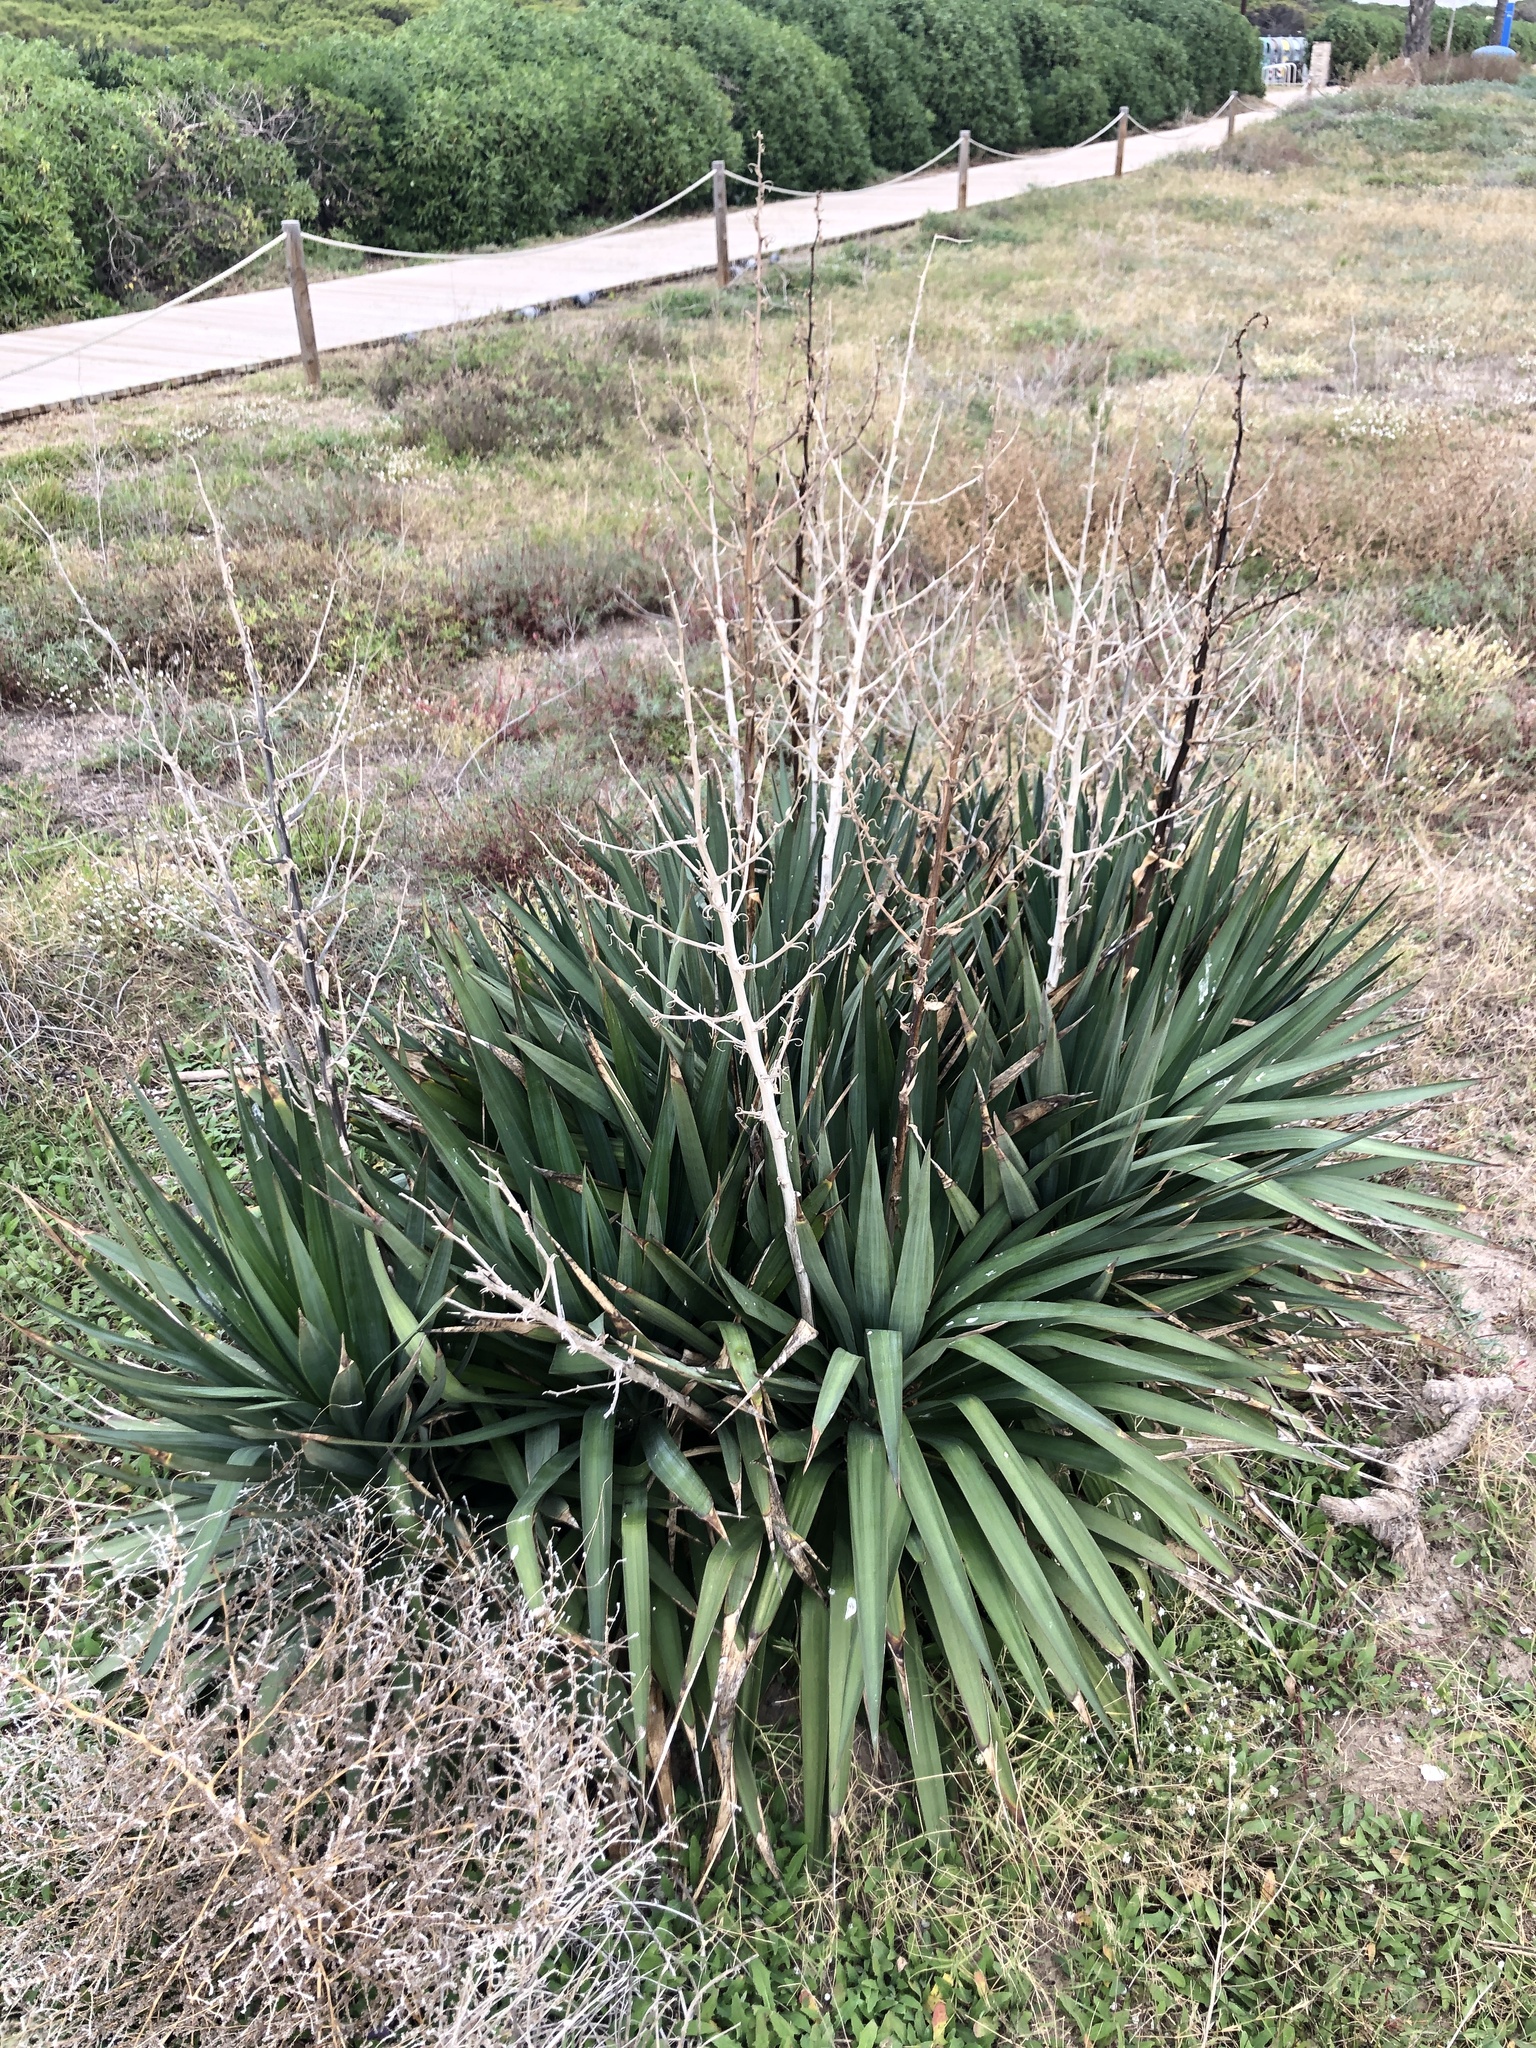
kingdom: Plantae
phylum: Tracheophyta
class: Liliopsida
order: Asparagales
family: Asparagaceae
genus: Yucca
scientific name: Yucca aloifolia
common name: Aloe yucca
